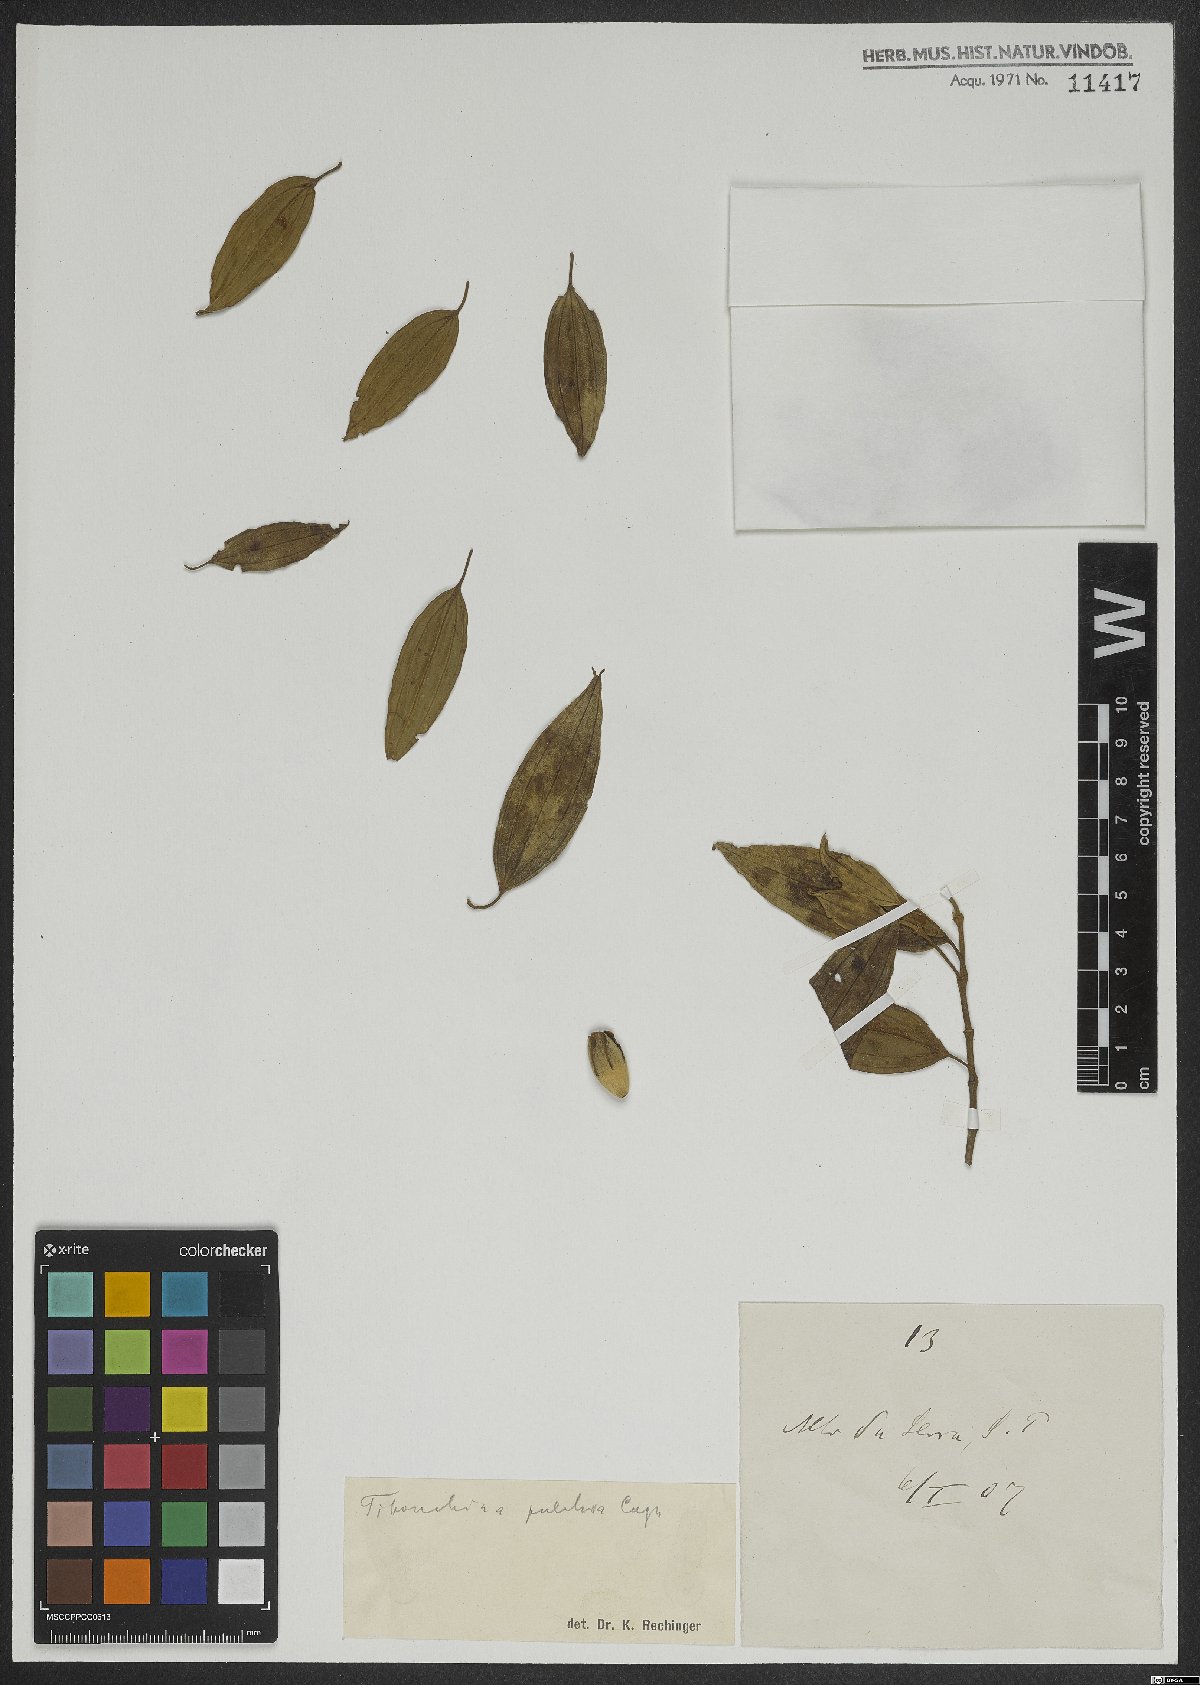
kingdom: Plantae
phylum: Tracheophyta
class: Magnoliopsida
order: Myrtales
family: Melastomataceae
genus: Pleroma
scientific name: Pleroma raddianum
